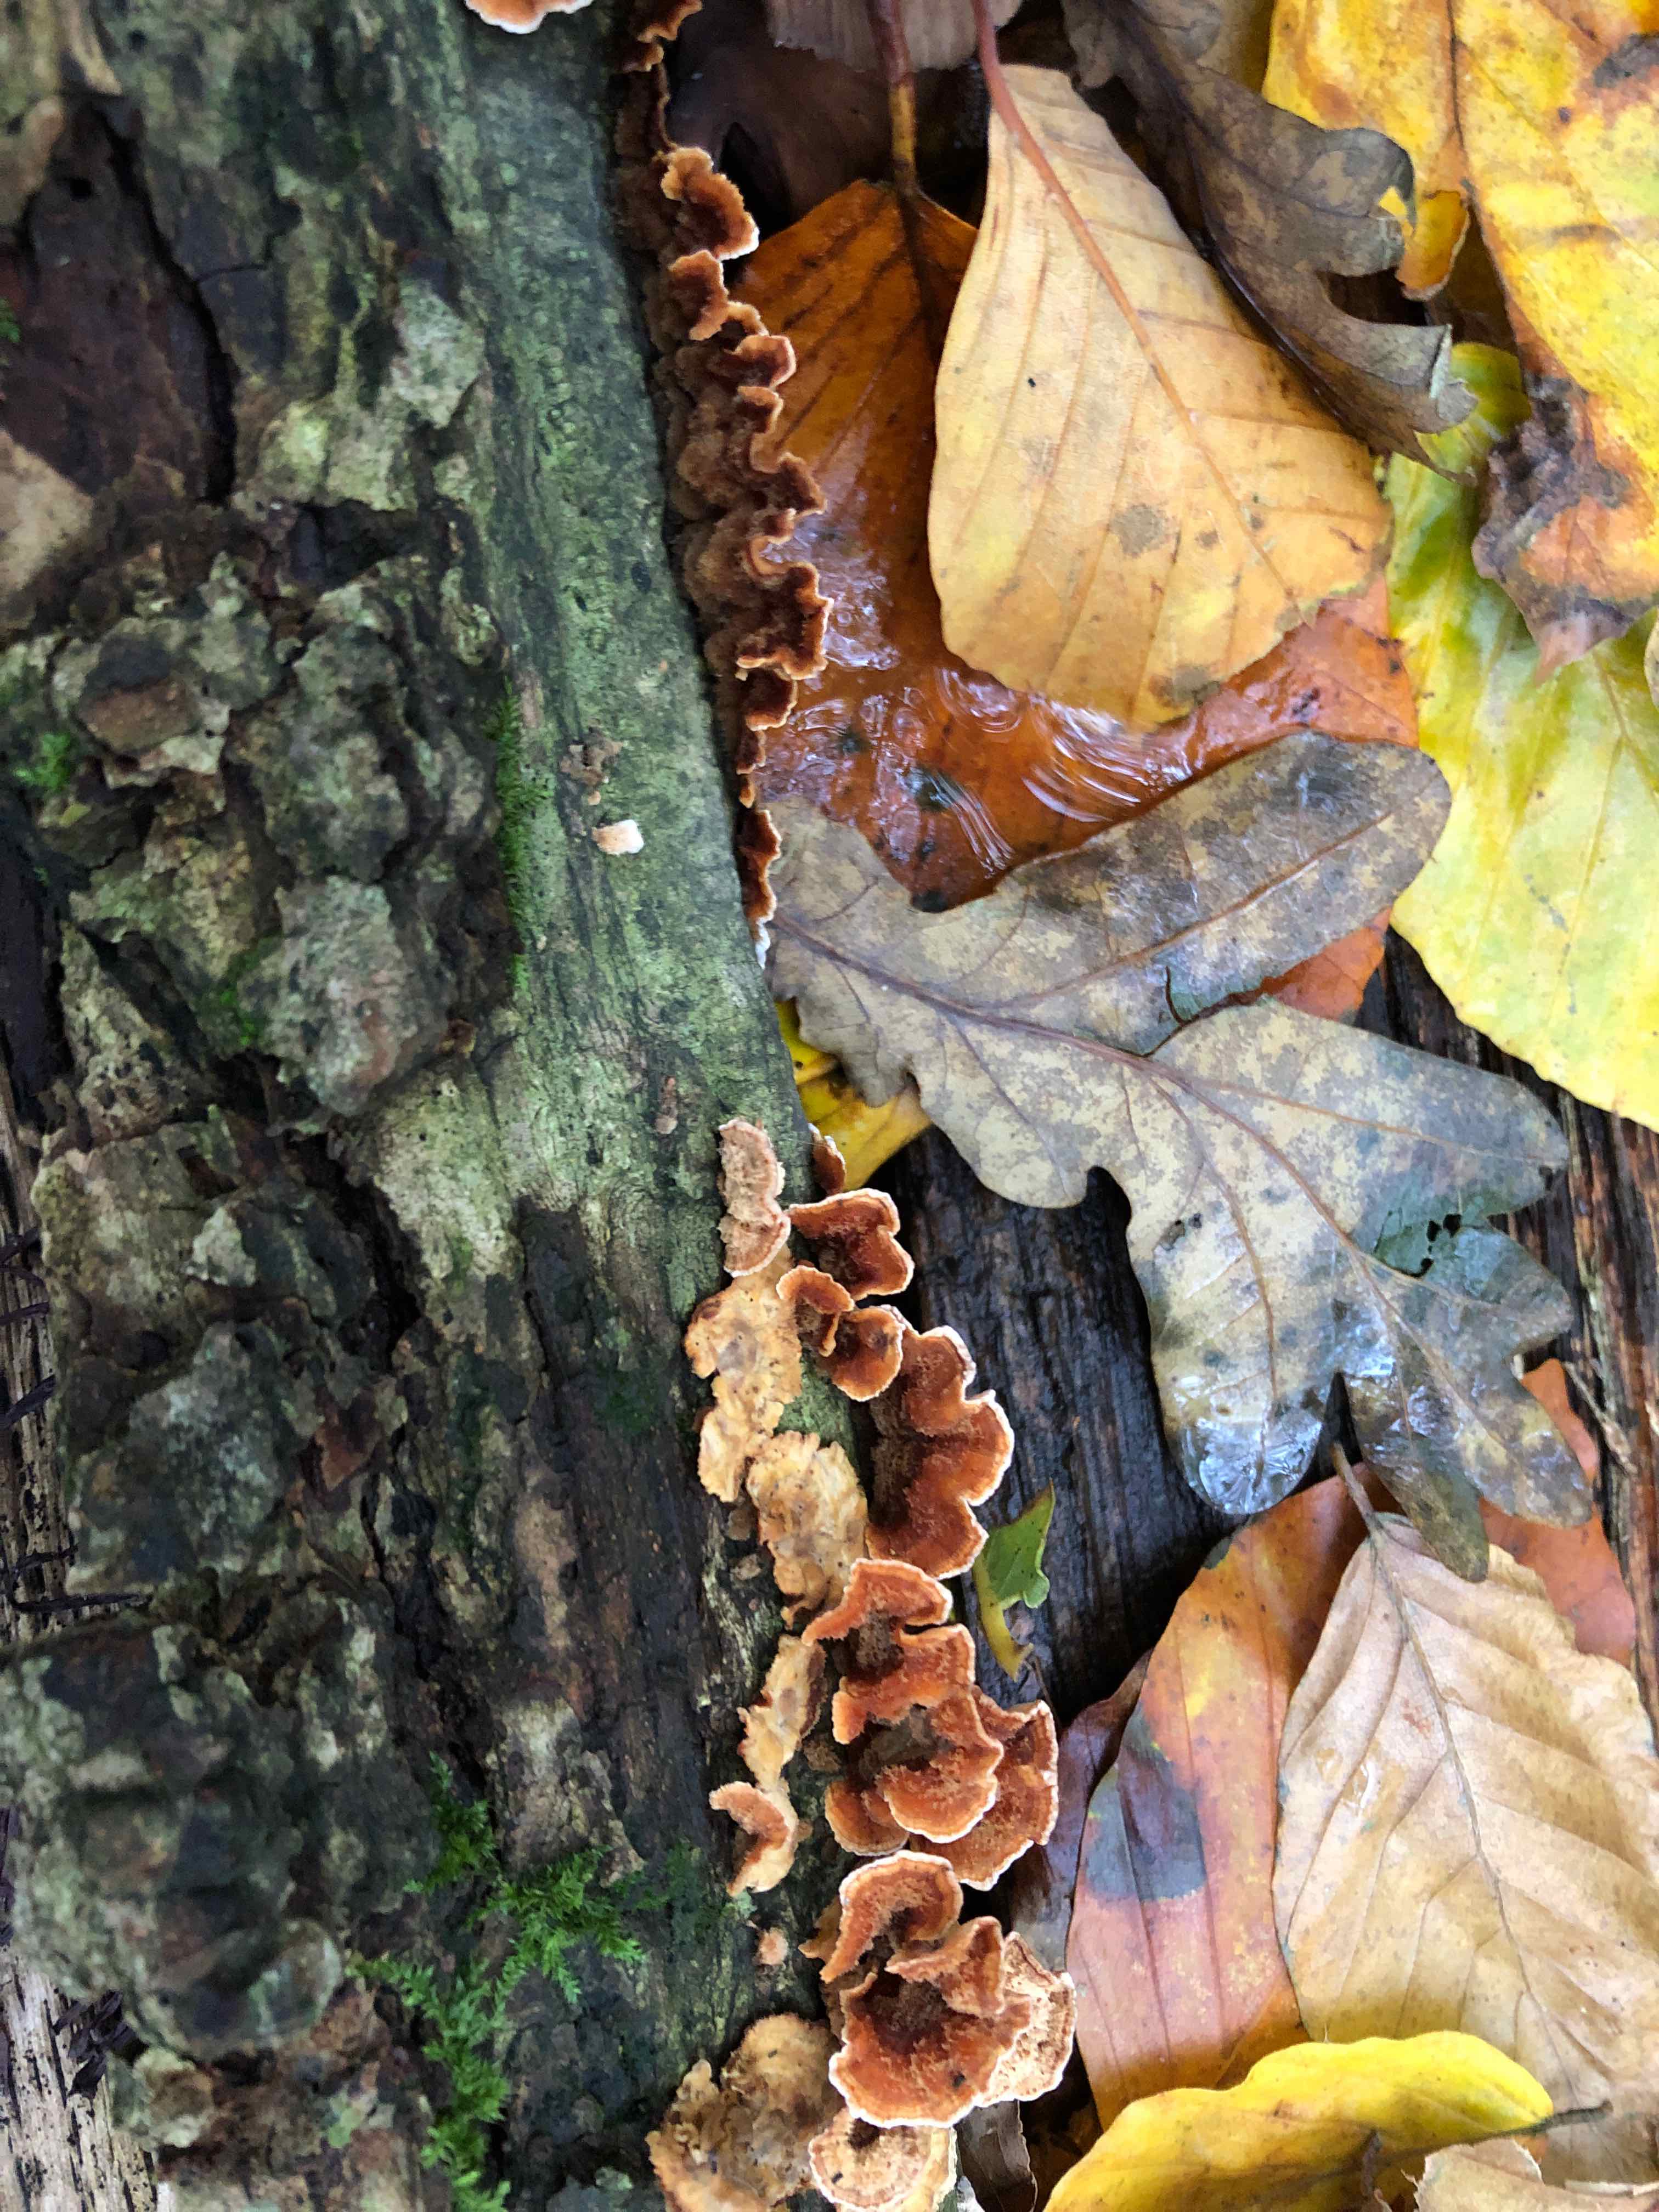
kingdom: Fungi
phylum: Basidiomycota
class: Agaricomycetes
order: Russulales
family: Stereaceae
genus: Stereum
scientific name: Stereum
